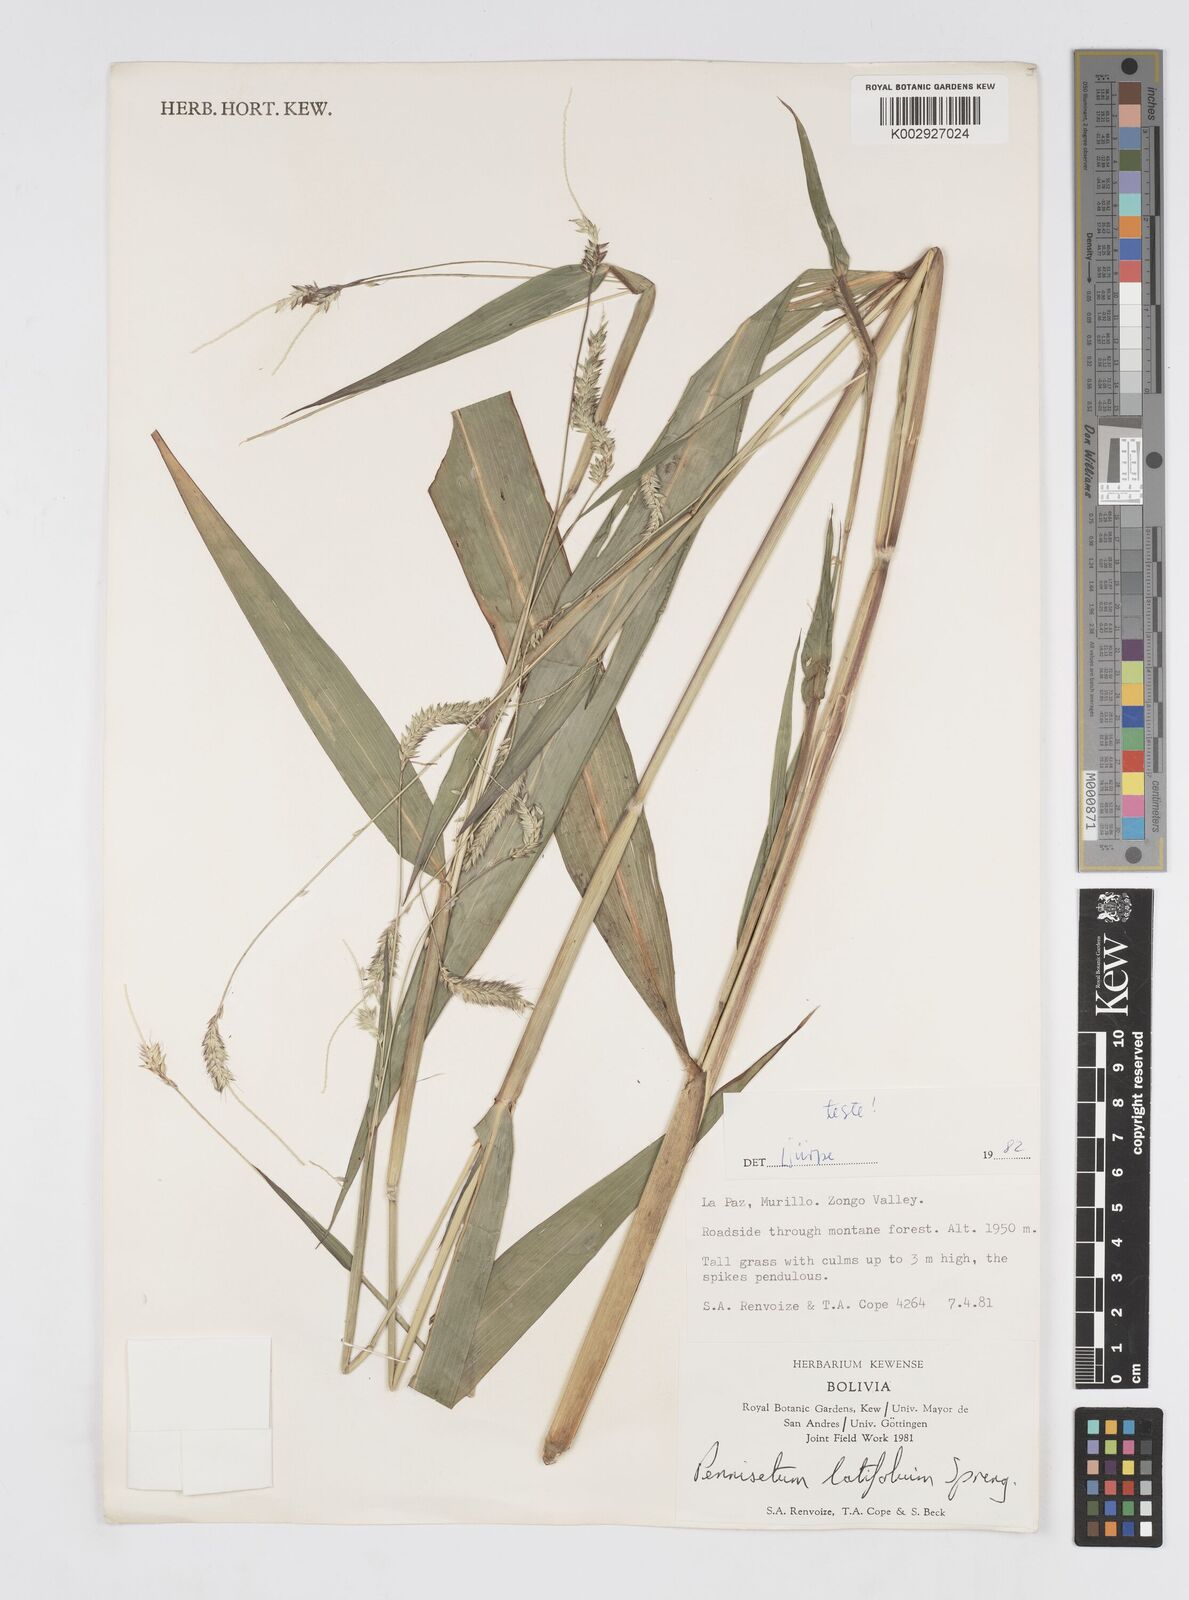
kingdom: Plantae
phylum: Tracheophyta
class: Liliopsida
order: Poales
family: Poaceae
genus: Cenchrus
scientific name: Cenchrus latifolius
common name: Sandbur
